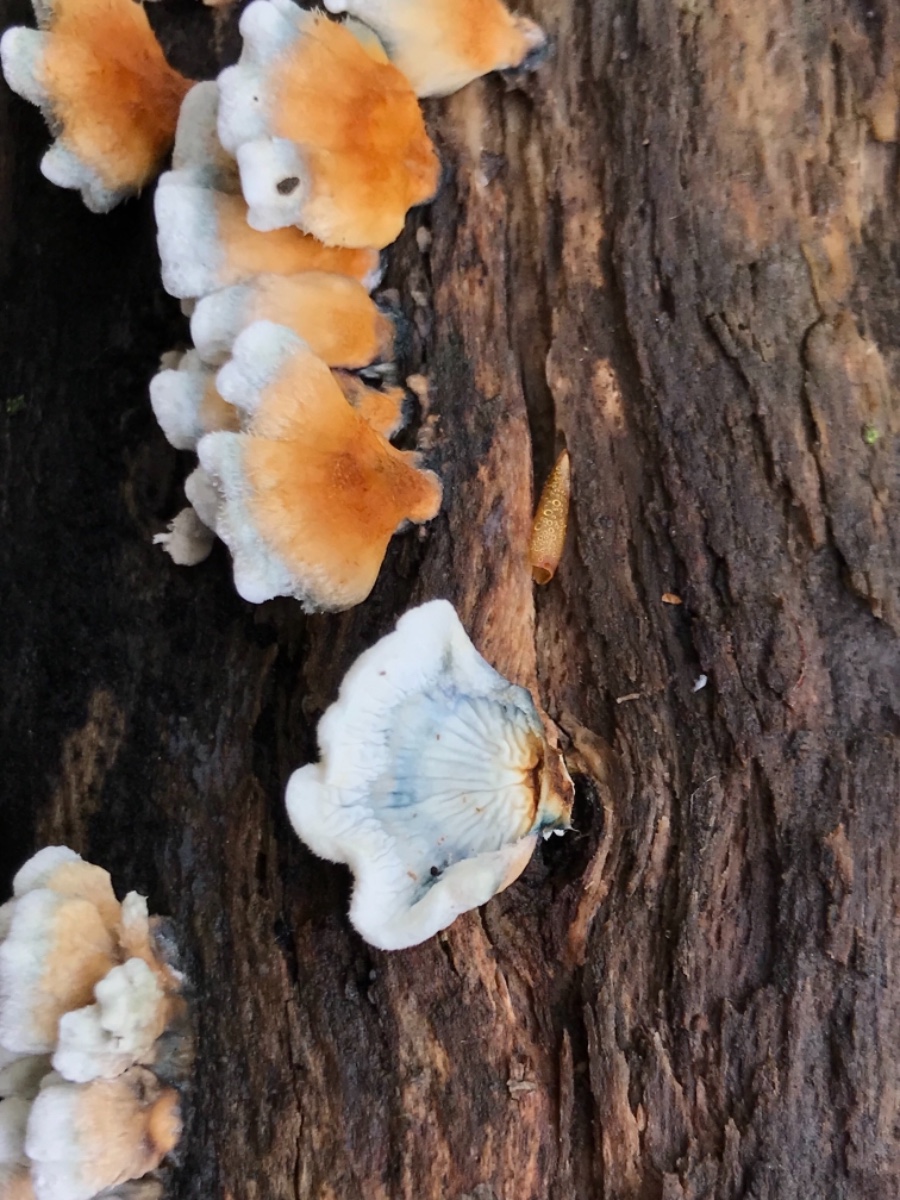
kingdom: Fungi
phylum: Basidiomycota
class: Agaricomycetes
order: Amylocorticiales
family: Amylocorticiaceae
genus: Plicaturopsis
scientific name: Plicaturopsis crispa
